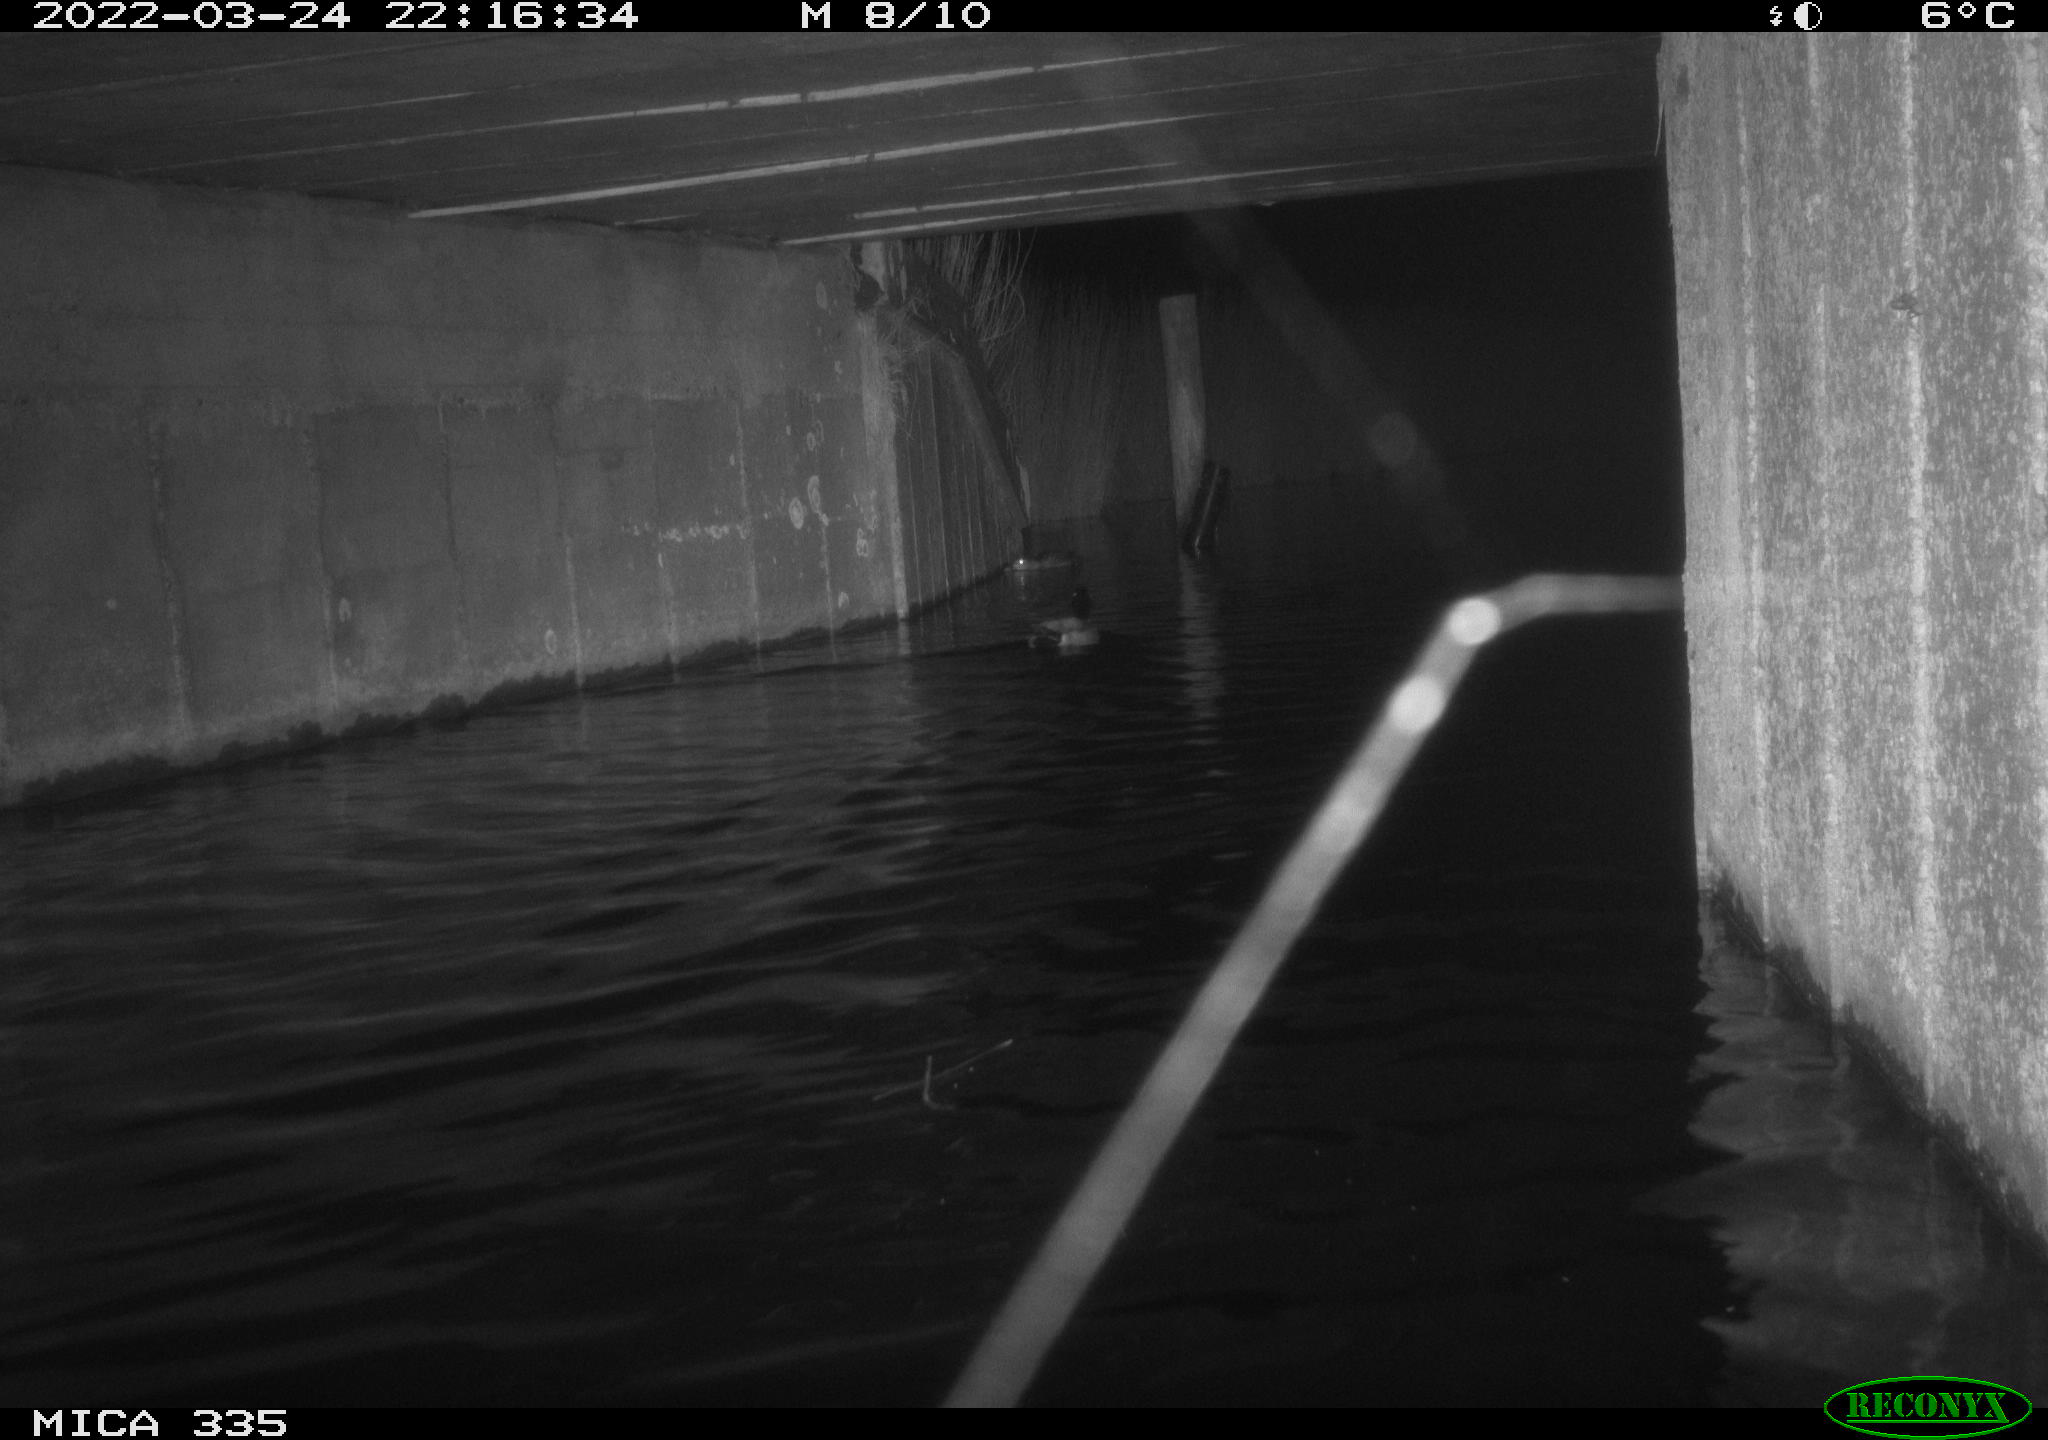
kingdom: Animalia
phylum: Chordata
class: Aves
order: Anseriformes
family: Anatidae
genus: Anas
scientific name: Anas platyrhynchos
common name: Mallard
